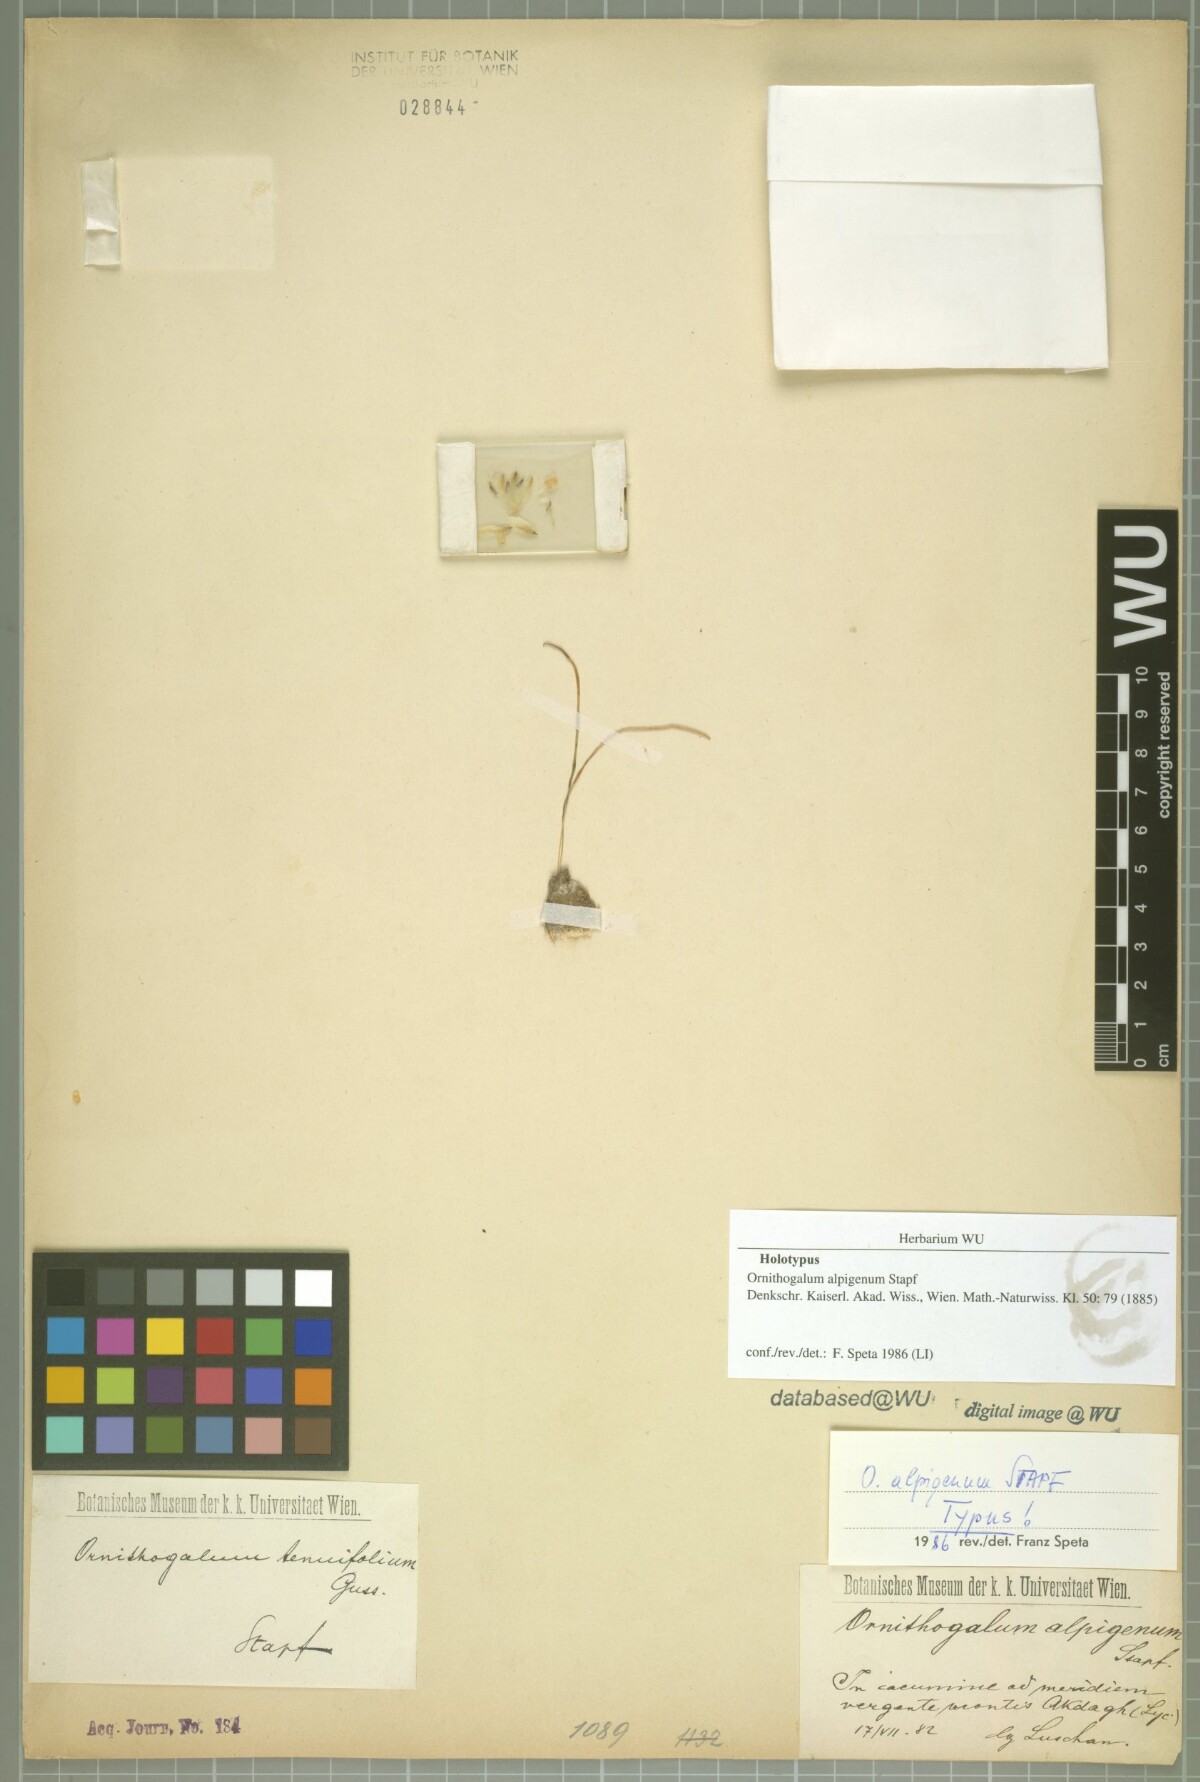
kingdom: Plantae
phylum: Tracheophyta
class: Liliopsida
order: Asparagales
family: Asparagaceae
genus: Ornithogalum
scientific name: Ornithogalum alpigenum
